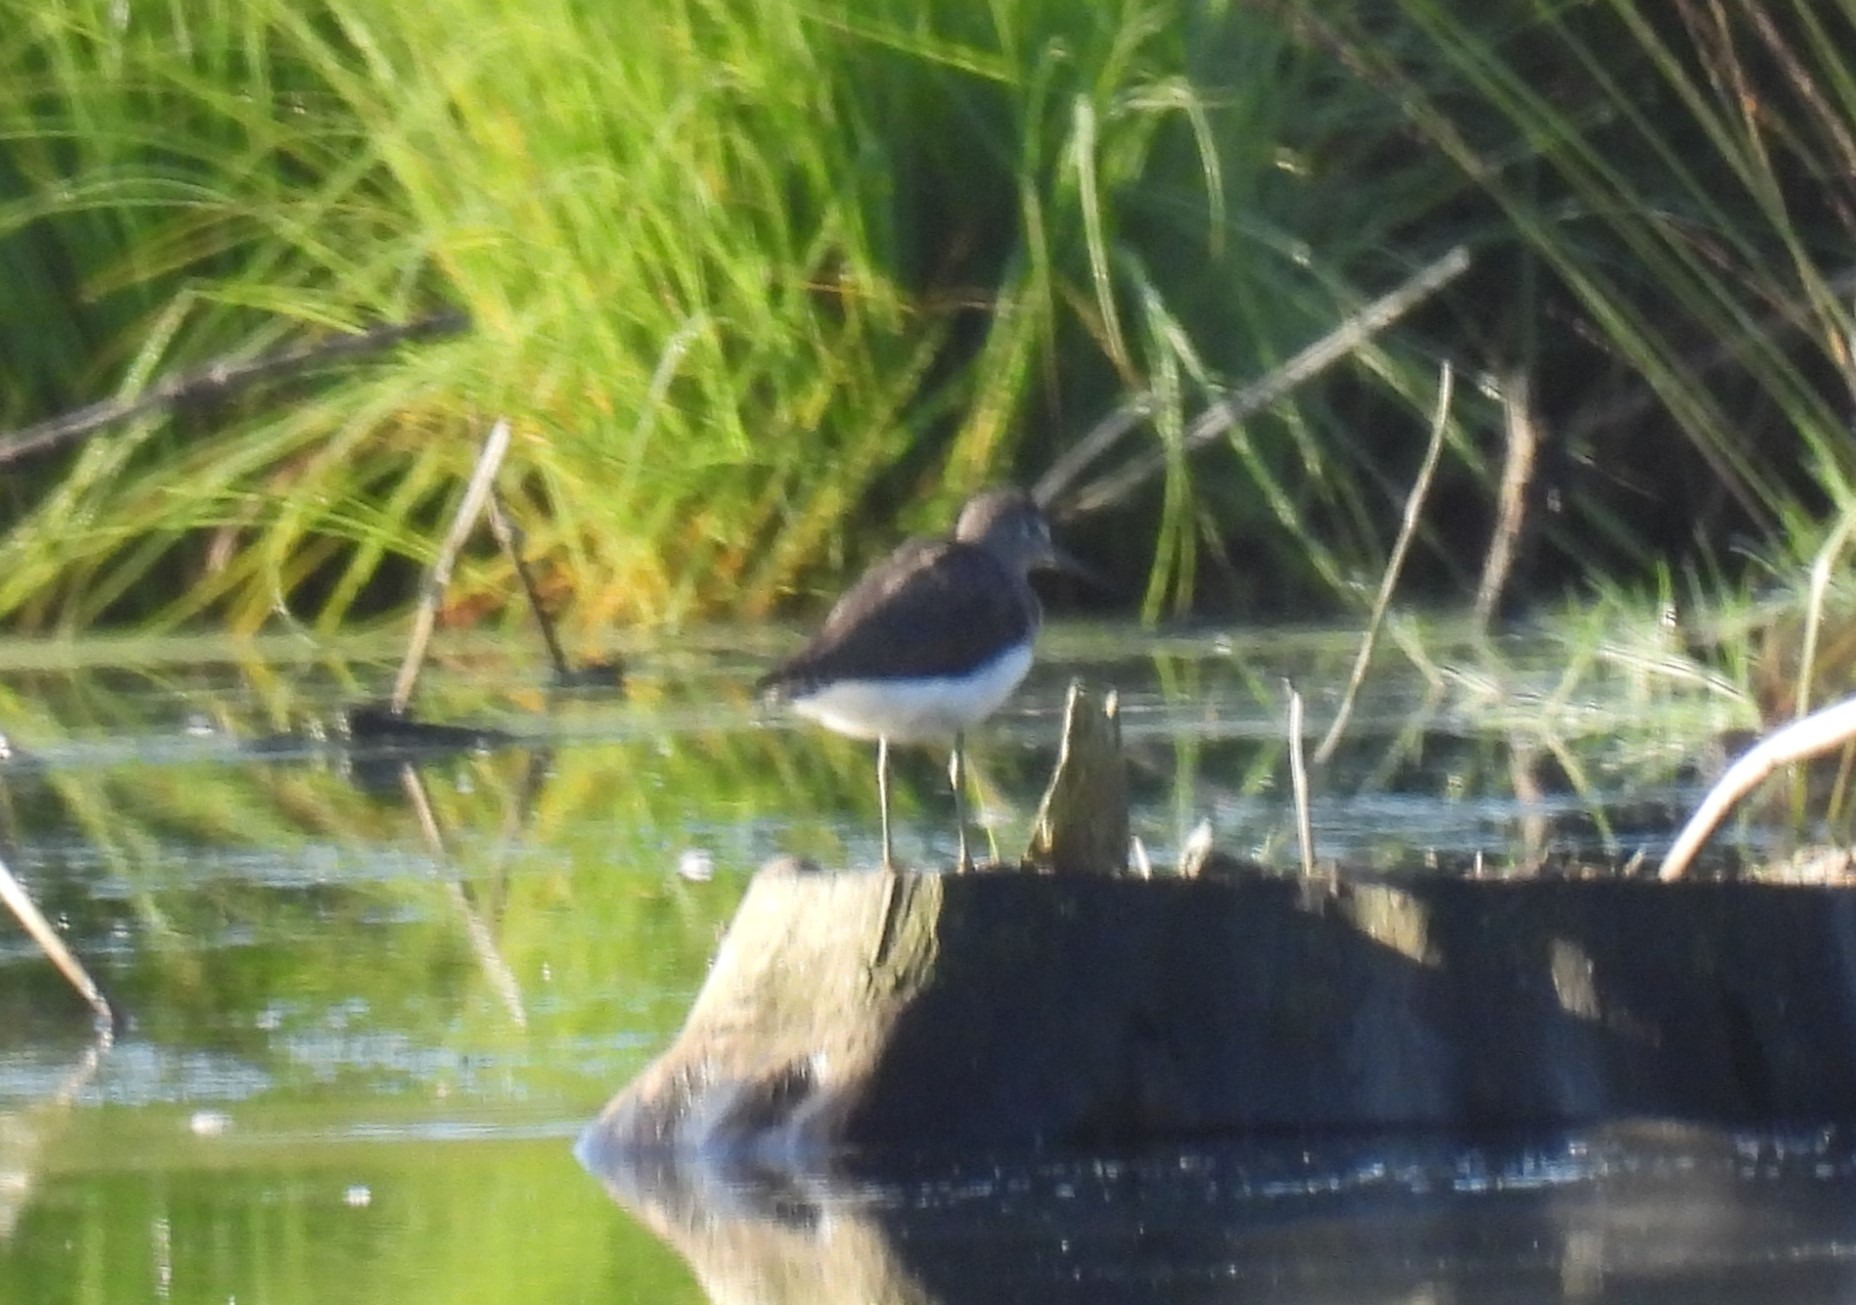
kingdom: Animalia
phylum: Chordata
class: Aves
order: Charadriiformes
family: Scolopacidae
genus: Tringa
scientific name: Tringa ochropus
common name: Svaleklire
